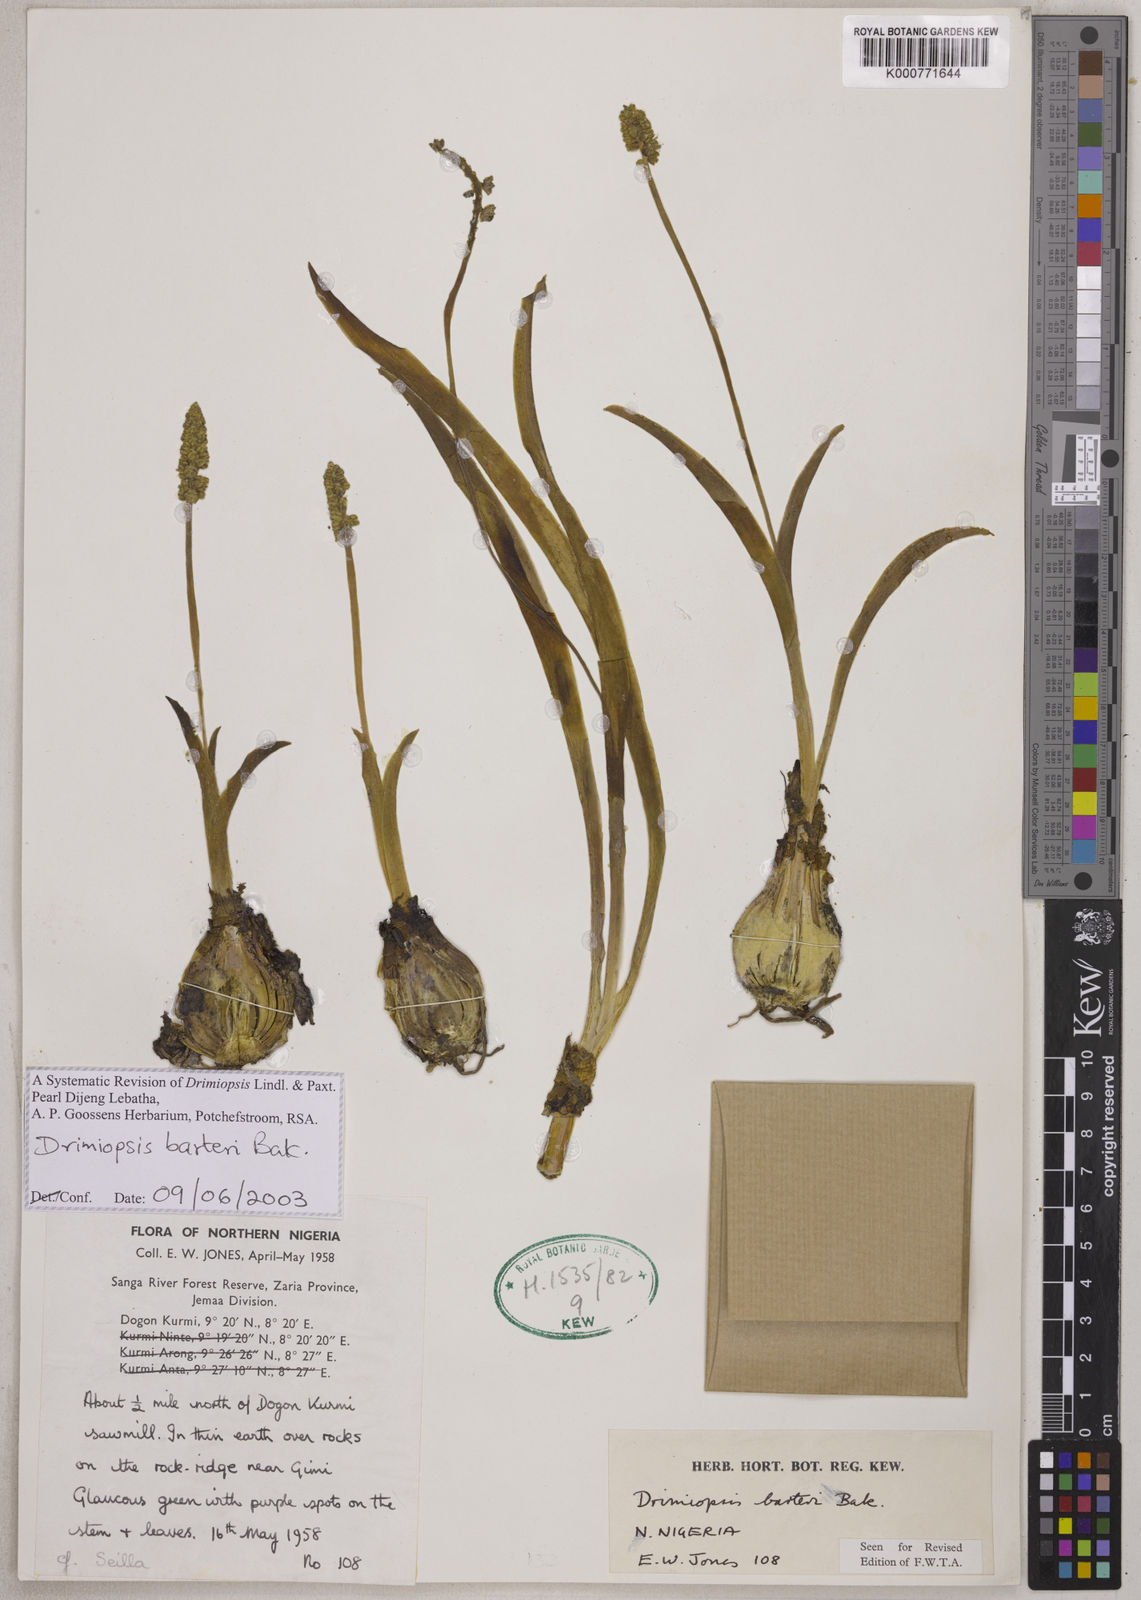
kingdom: Plantae
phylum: Tracheophyta
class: Liliopsida
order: Asparagales
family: Asparagaceae
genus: Drimiopsis
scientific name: Drimiopsis barteri
